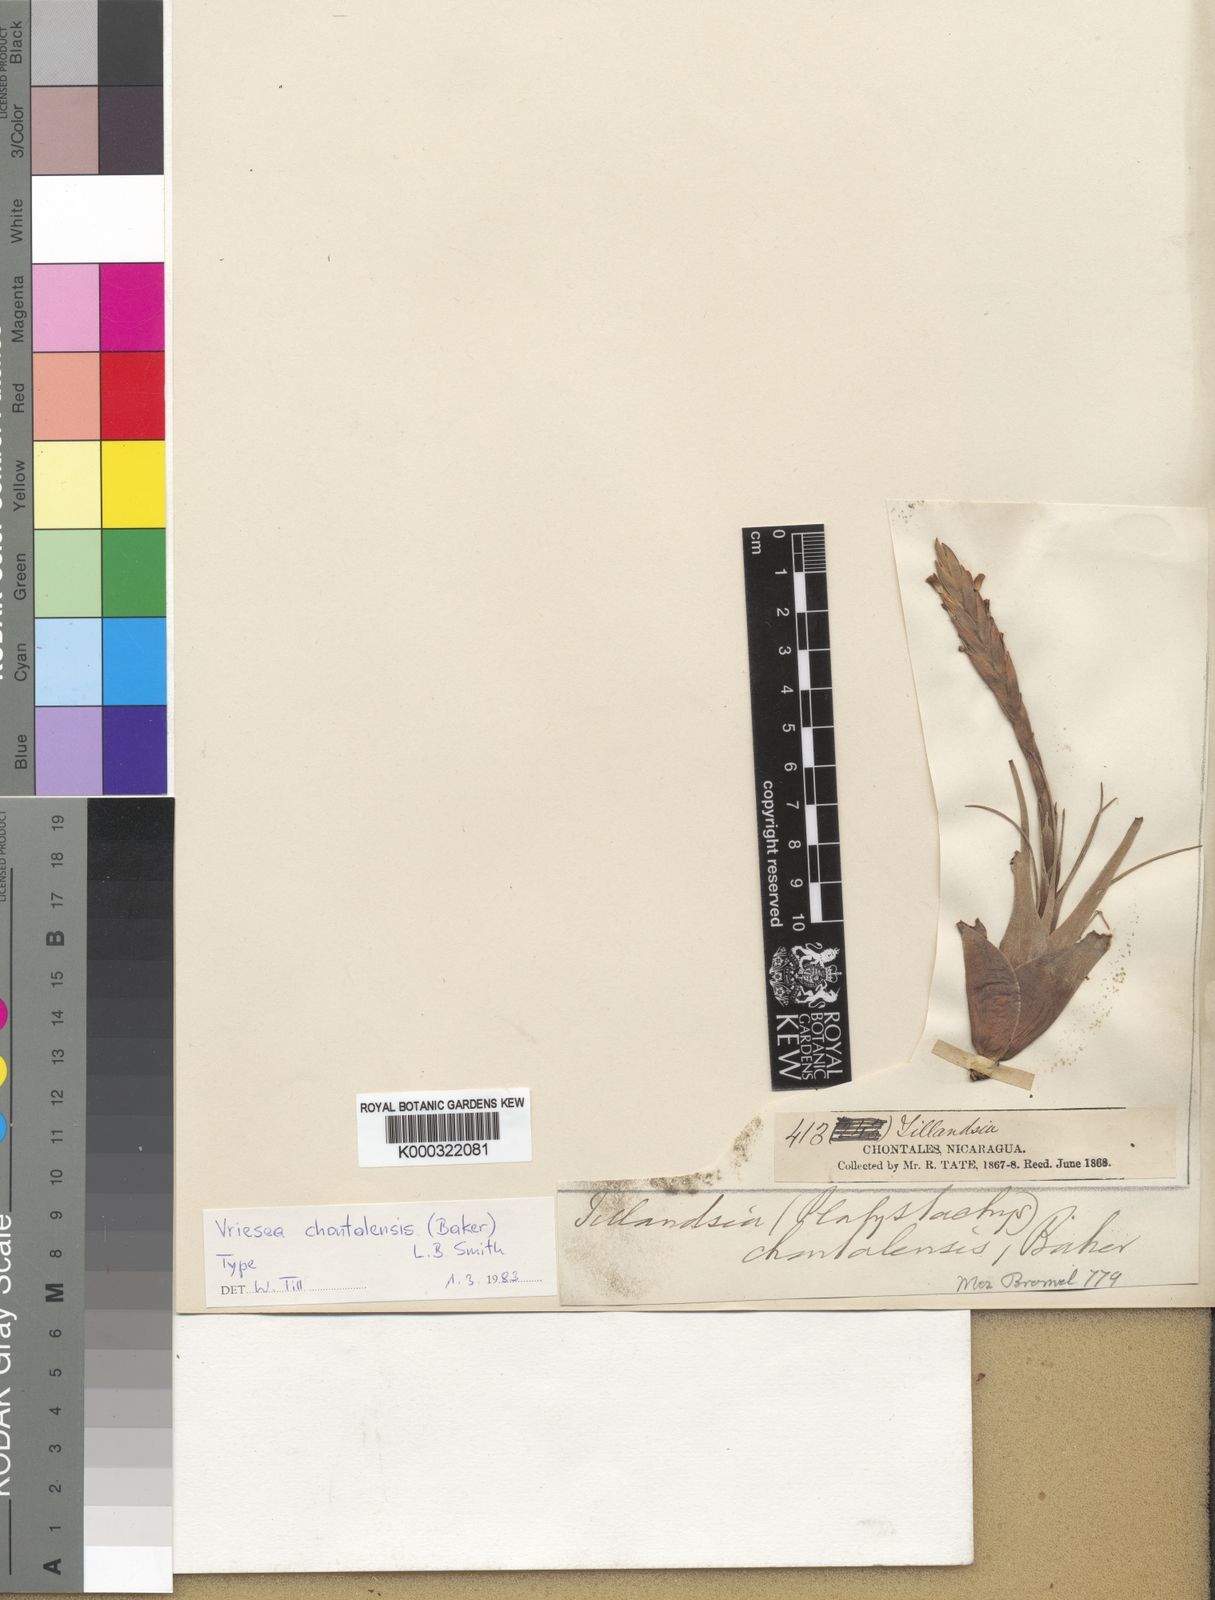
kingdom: Plantae
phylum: Tracheophyta
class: Liliopsida
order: Poales
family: Bromeliaceae
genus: Tillandsia
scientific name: Tillandsia chontalensis
